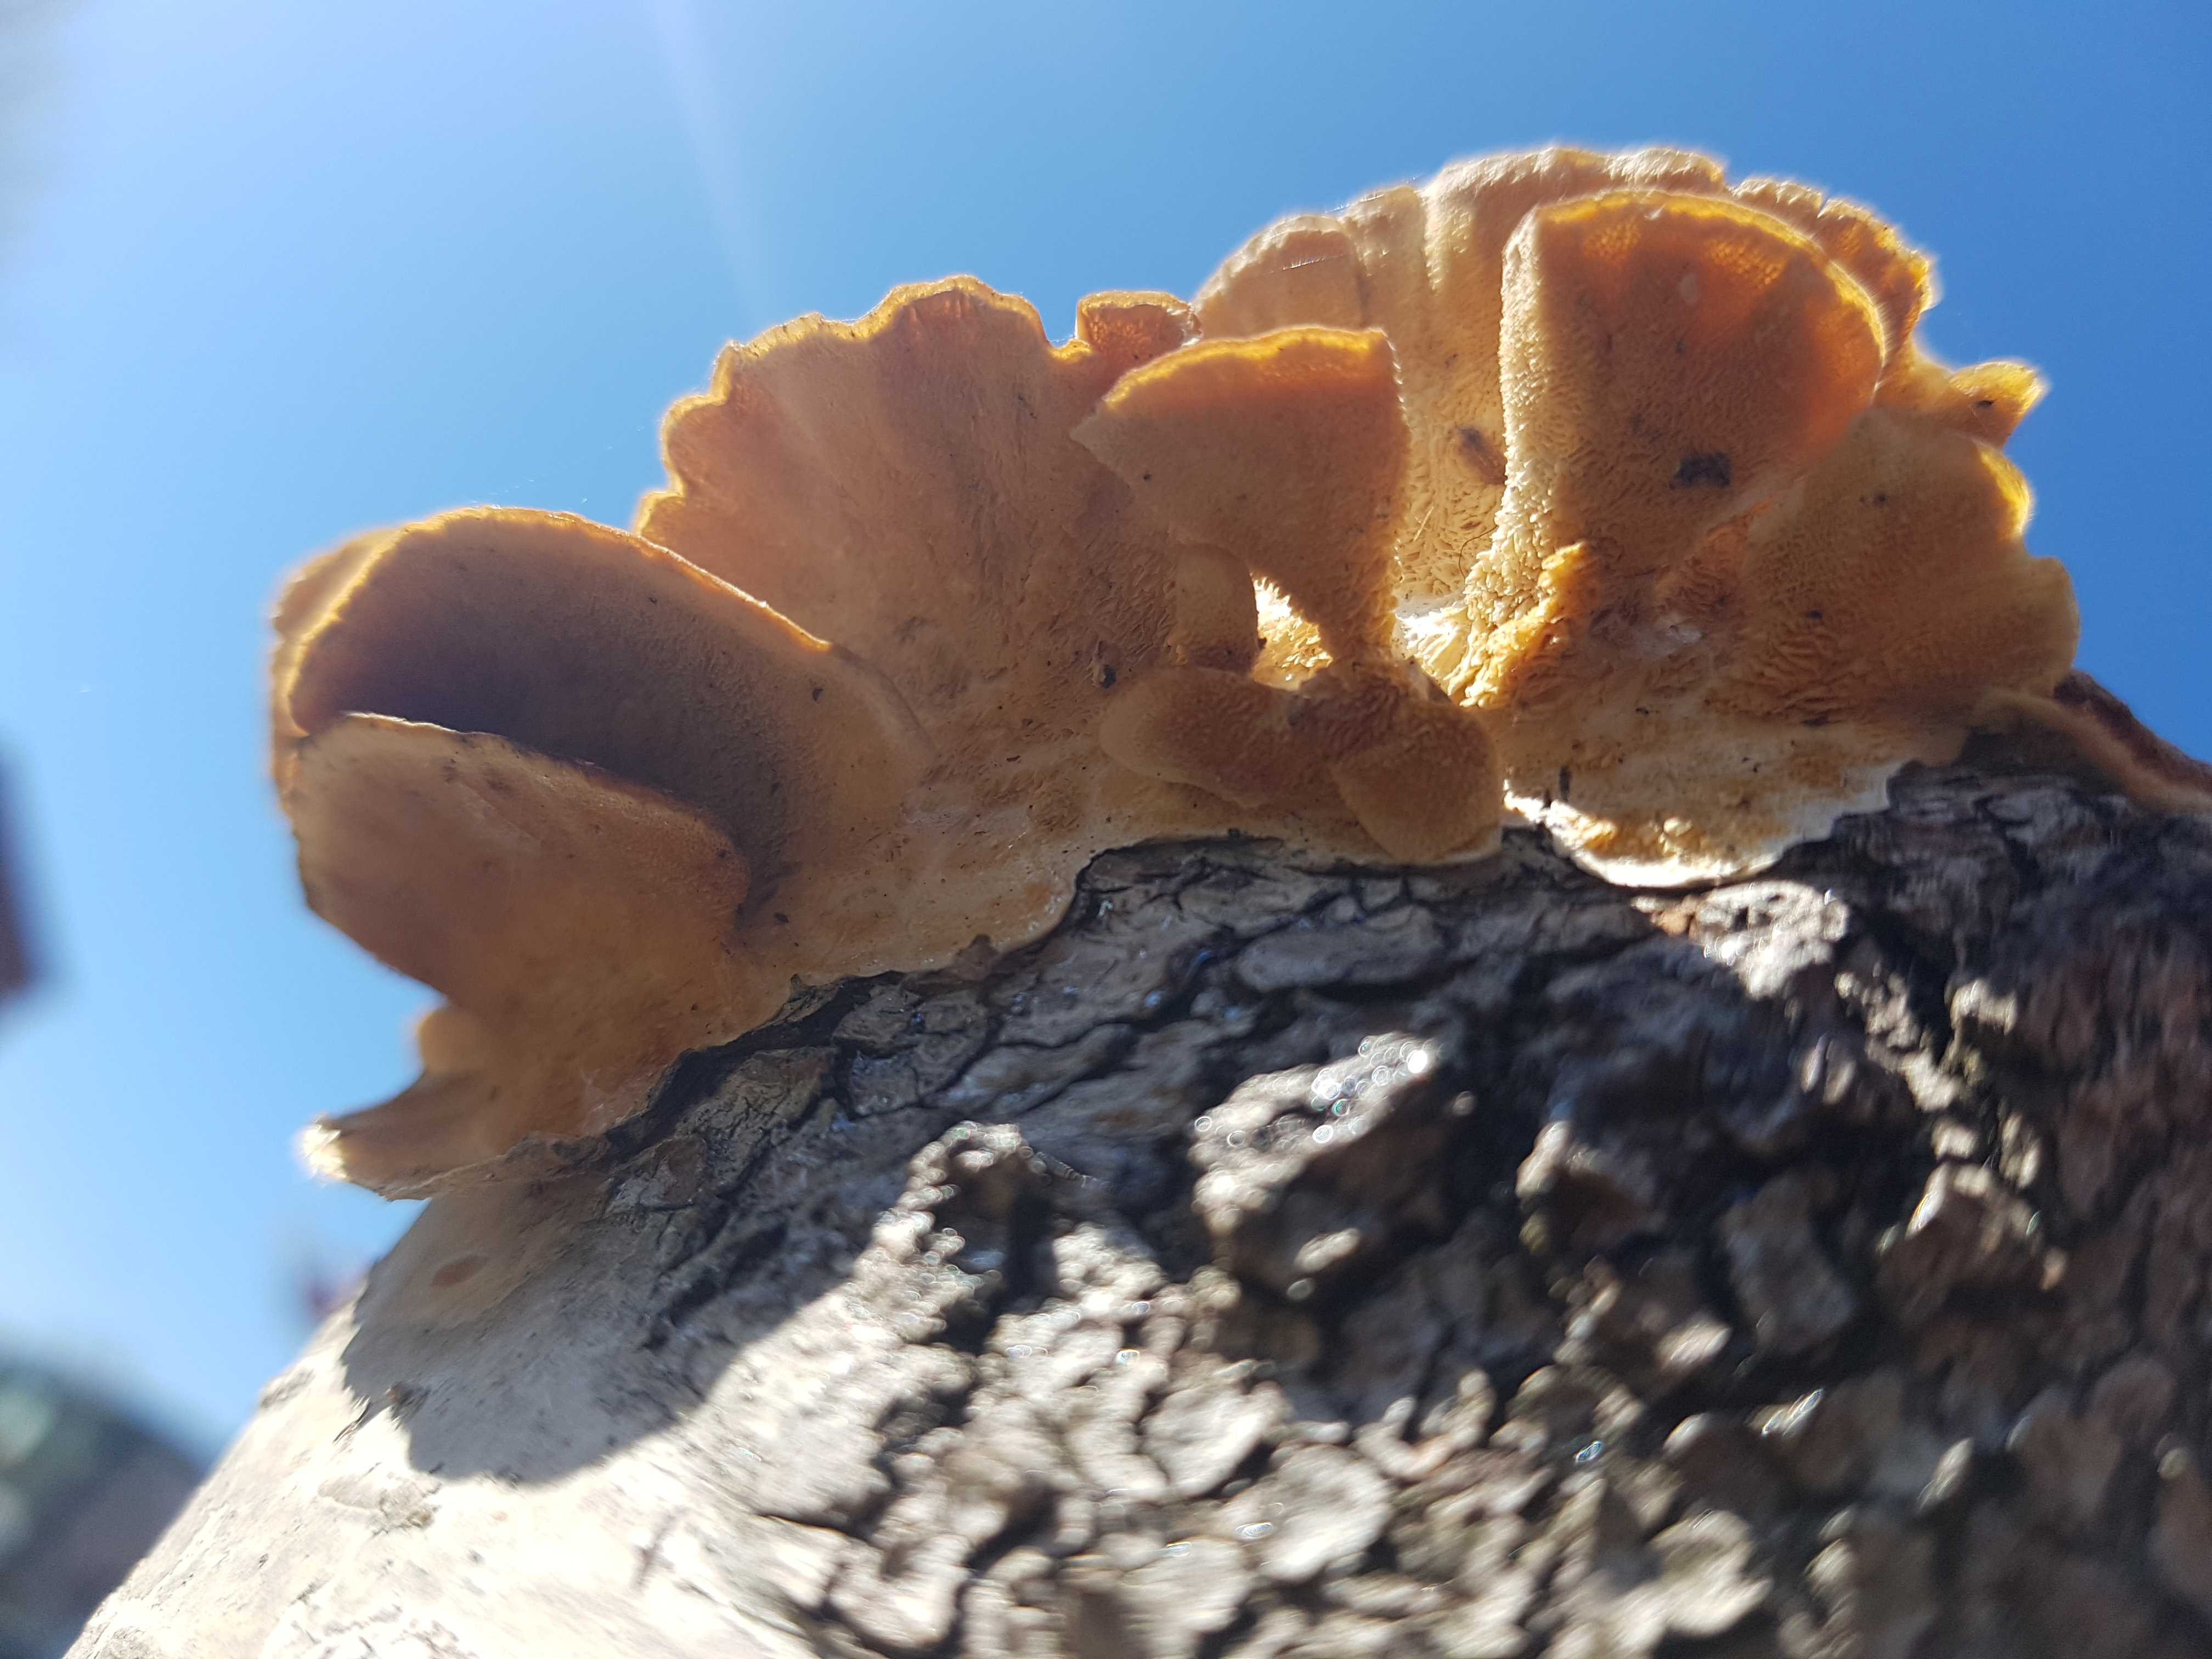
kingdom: Fungi
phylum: Basidiomycota
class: Agaricomycetes
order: Polyporales
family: Polyporaceae
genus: Trametes
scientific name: Trametes versicolor
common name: broget læderporesvamp
